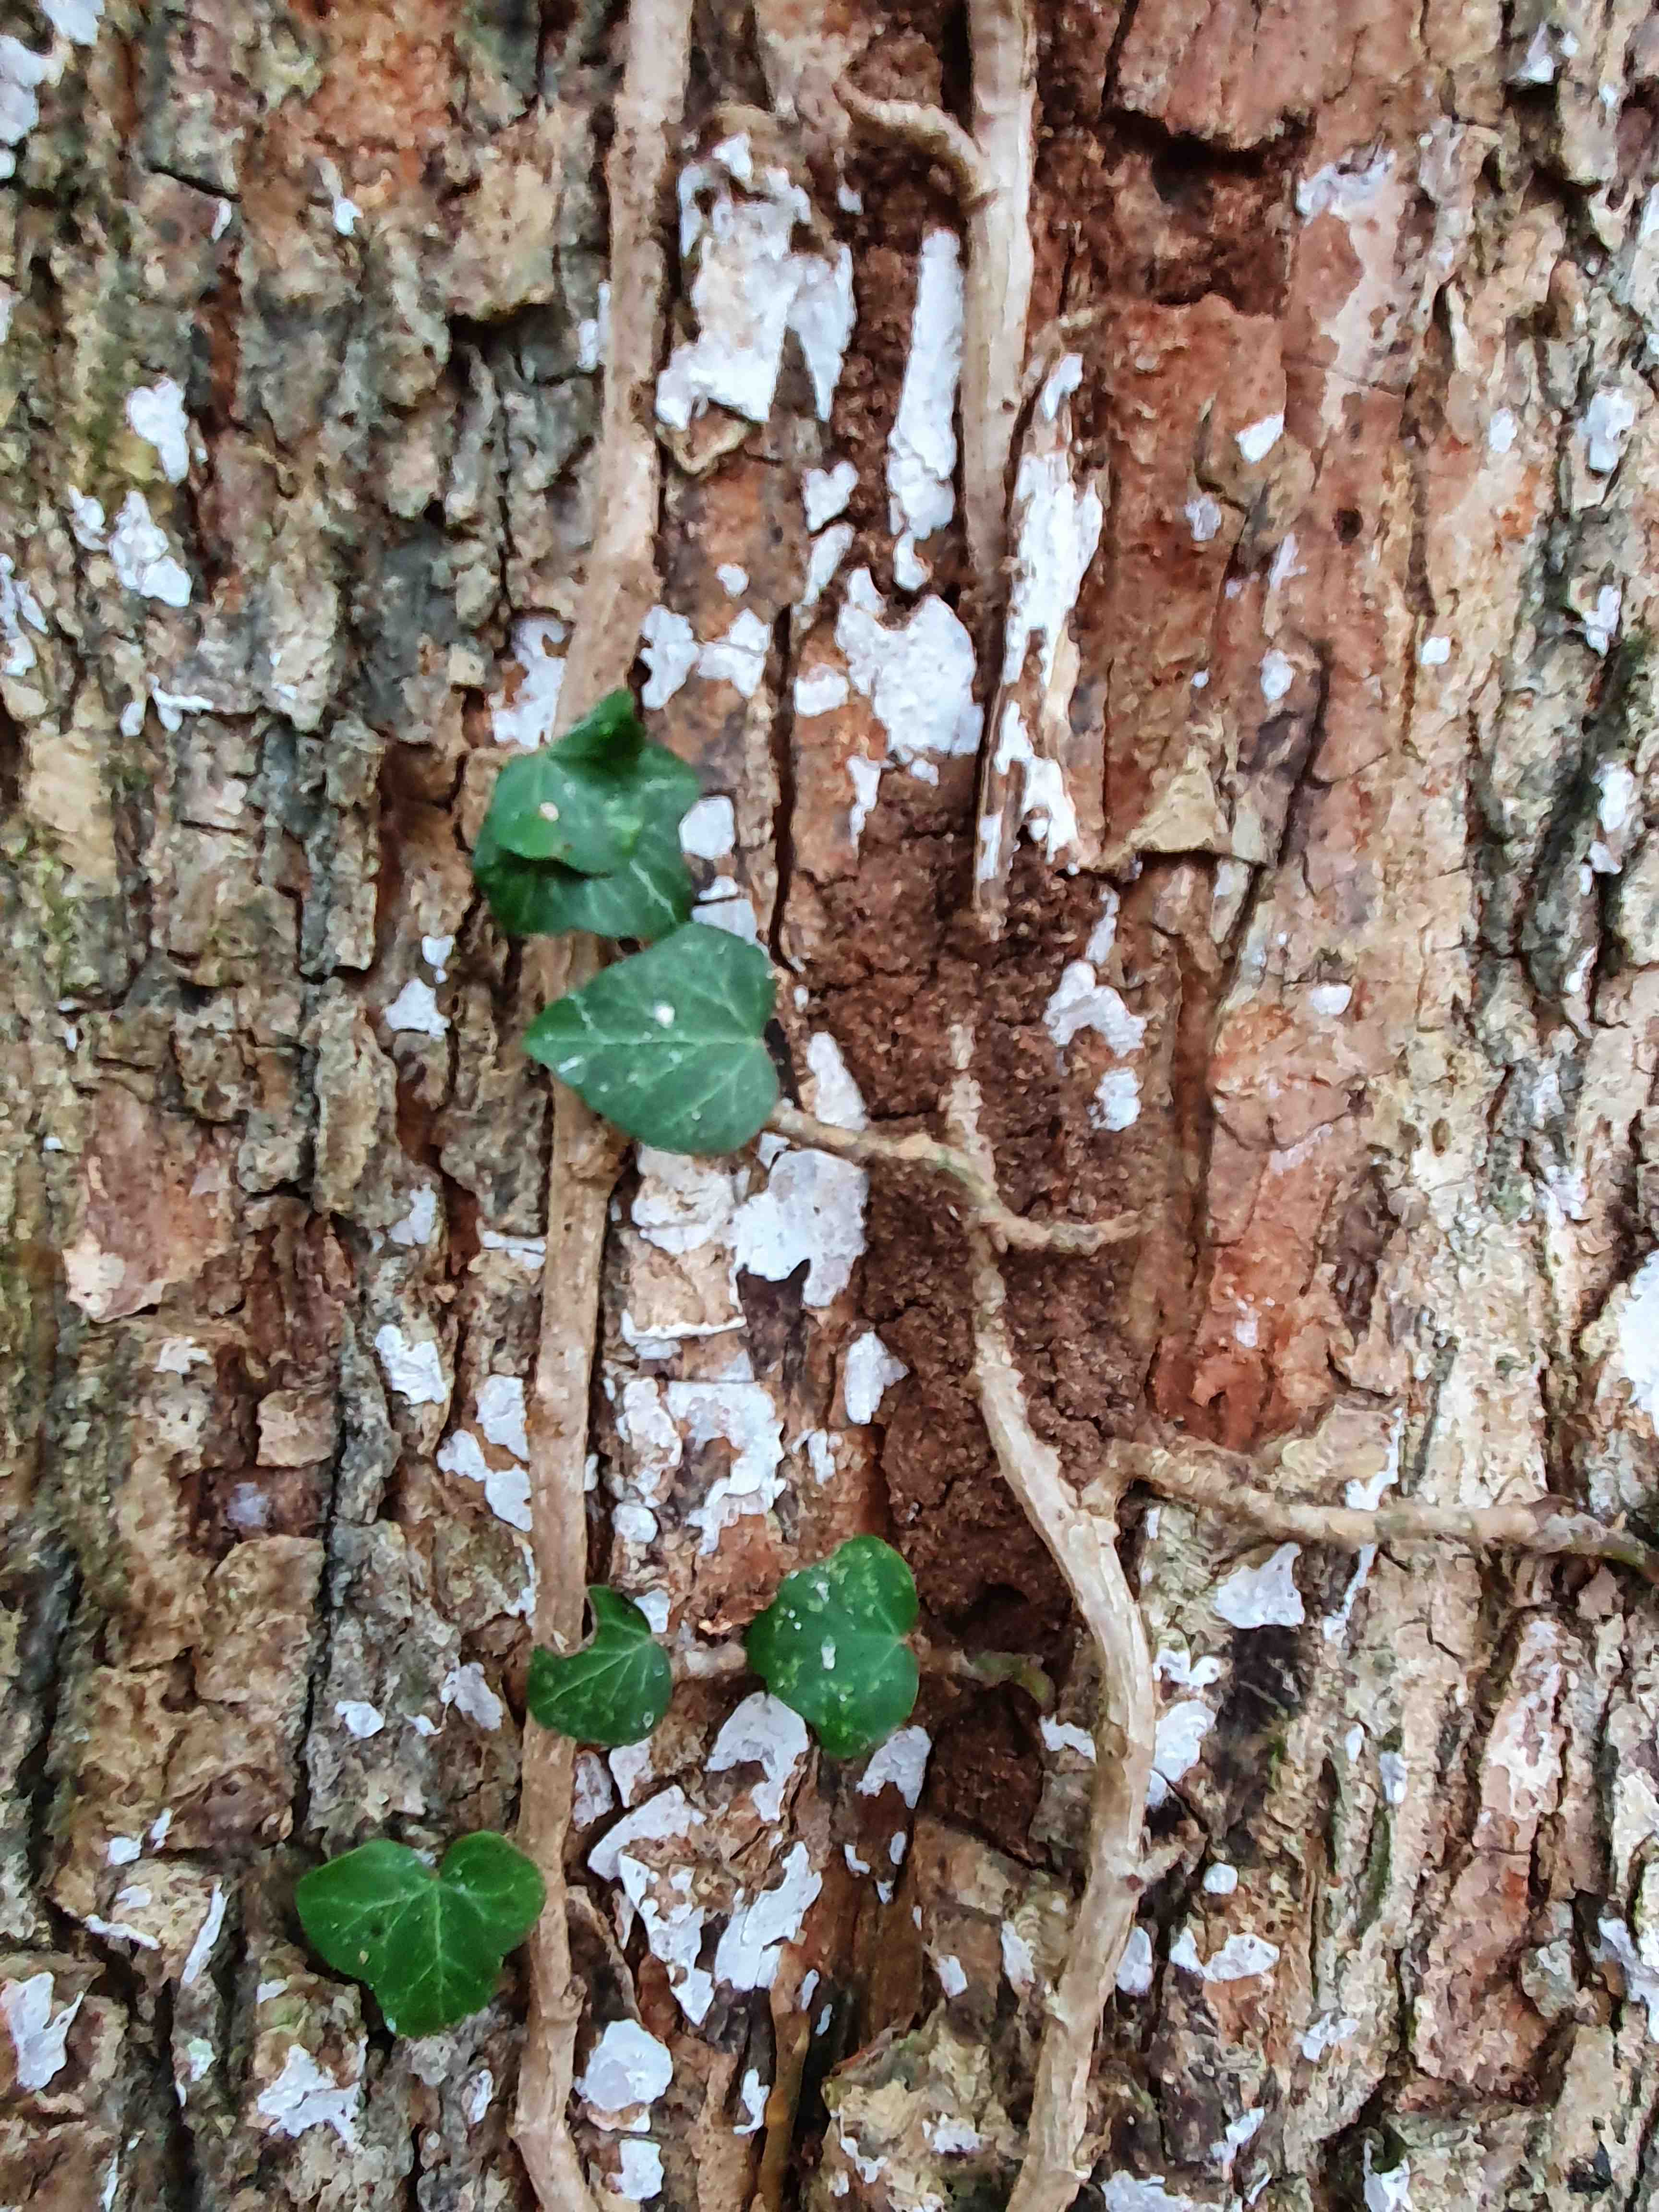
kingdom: Fungi
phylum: Basidiomycota
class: Agaricomycetes
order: Agaricales
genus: Dendrothele
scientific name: Dendrothele acerina
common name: navr-kalkplet
